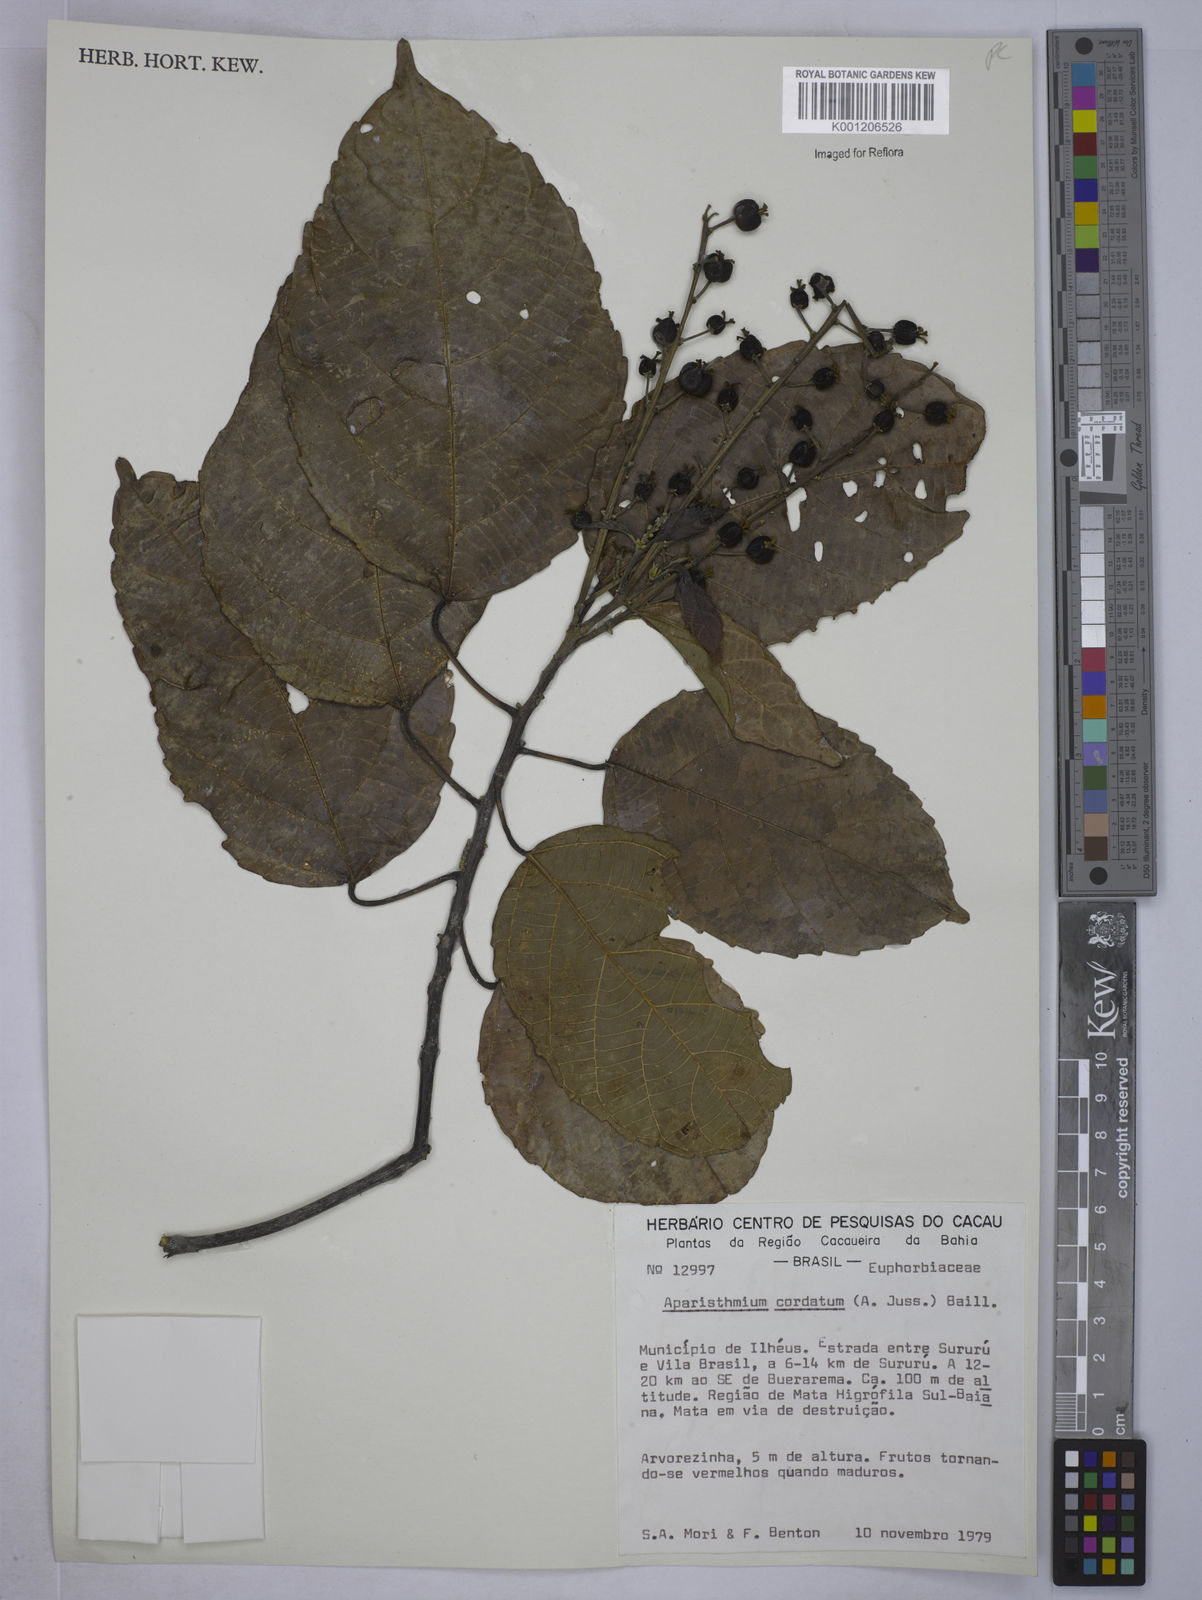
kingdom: Plantae
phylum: Tracheophyta
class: Magnoliopsida
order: Malpighiales
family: Euphorbiaceae
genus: Aparisthmium
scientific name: Aparisthmium cordatum
